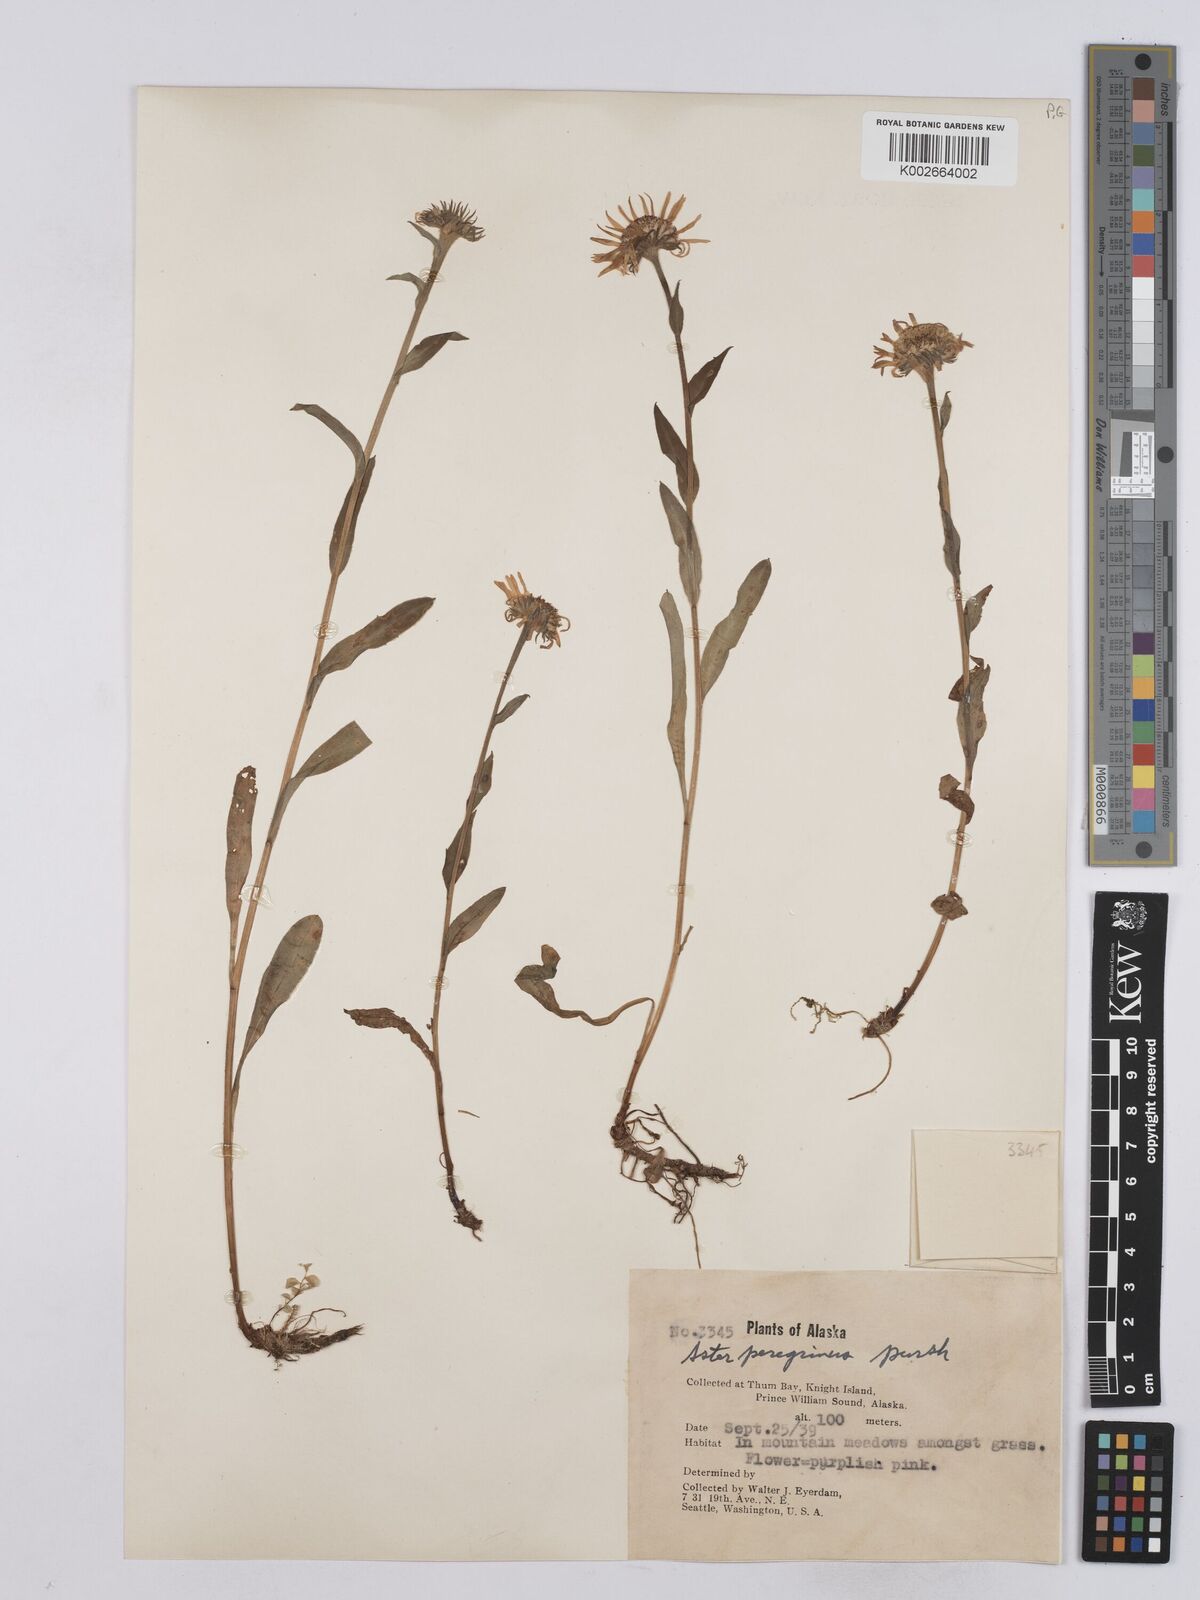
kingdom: Plantae
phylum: Tracheophyta
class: Magnoliopsida
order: Asterales
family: Asteraceae
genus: Erigeron
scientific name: Erigeron peregrinus
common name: Peregrine fleabane
